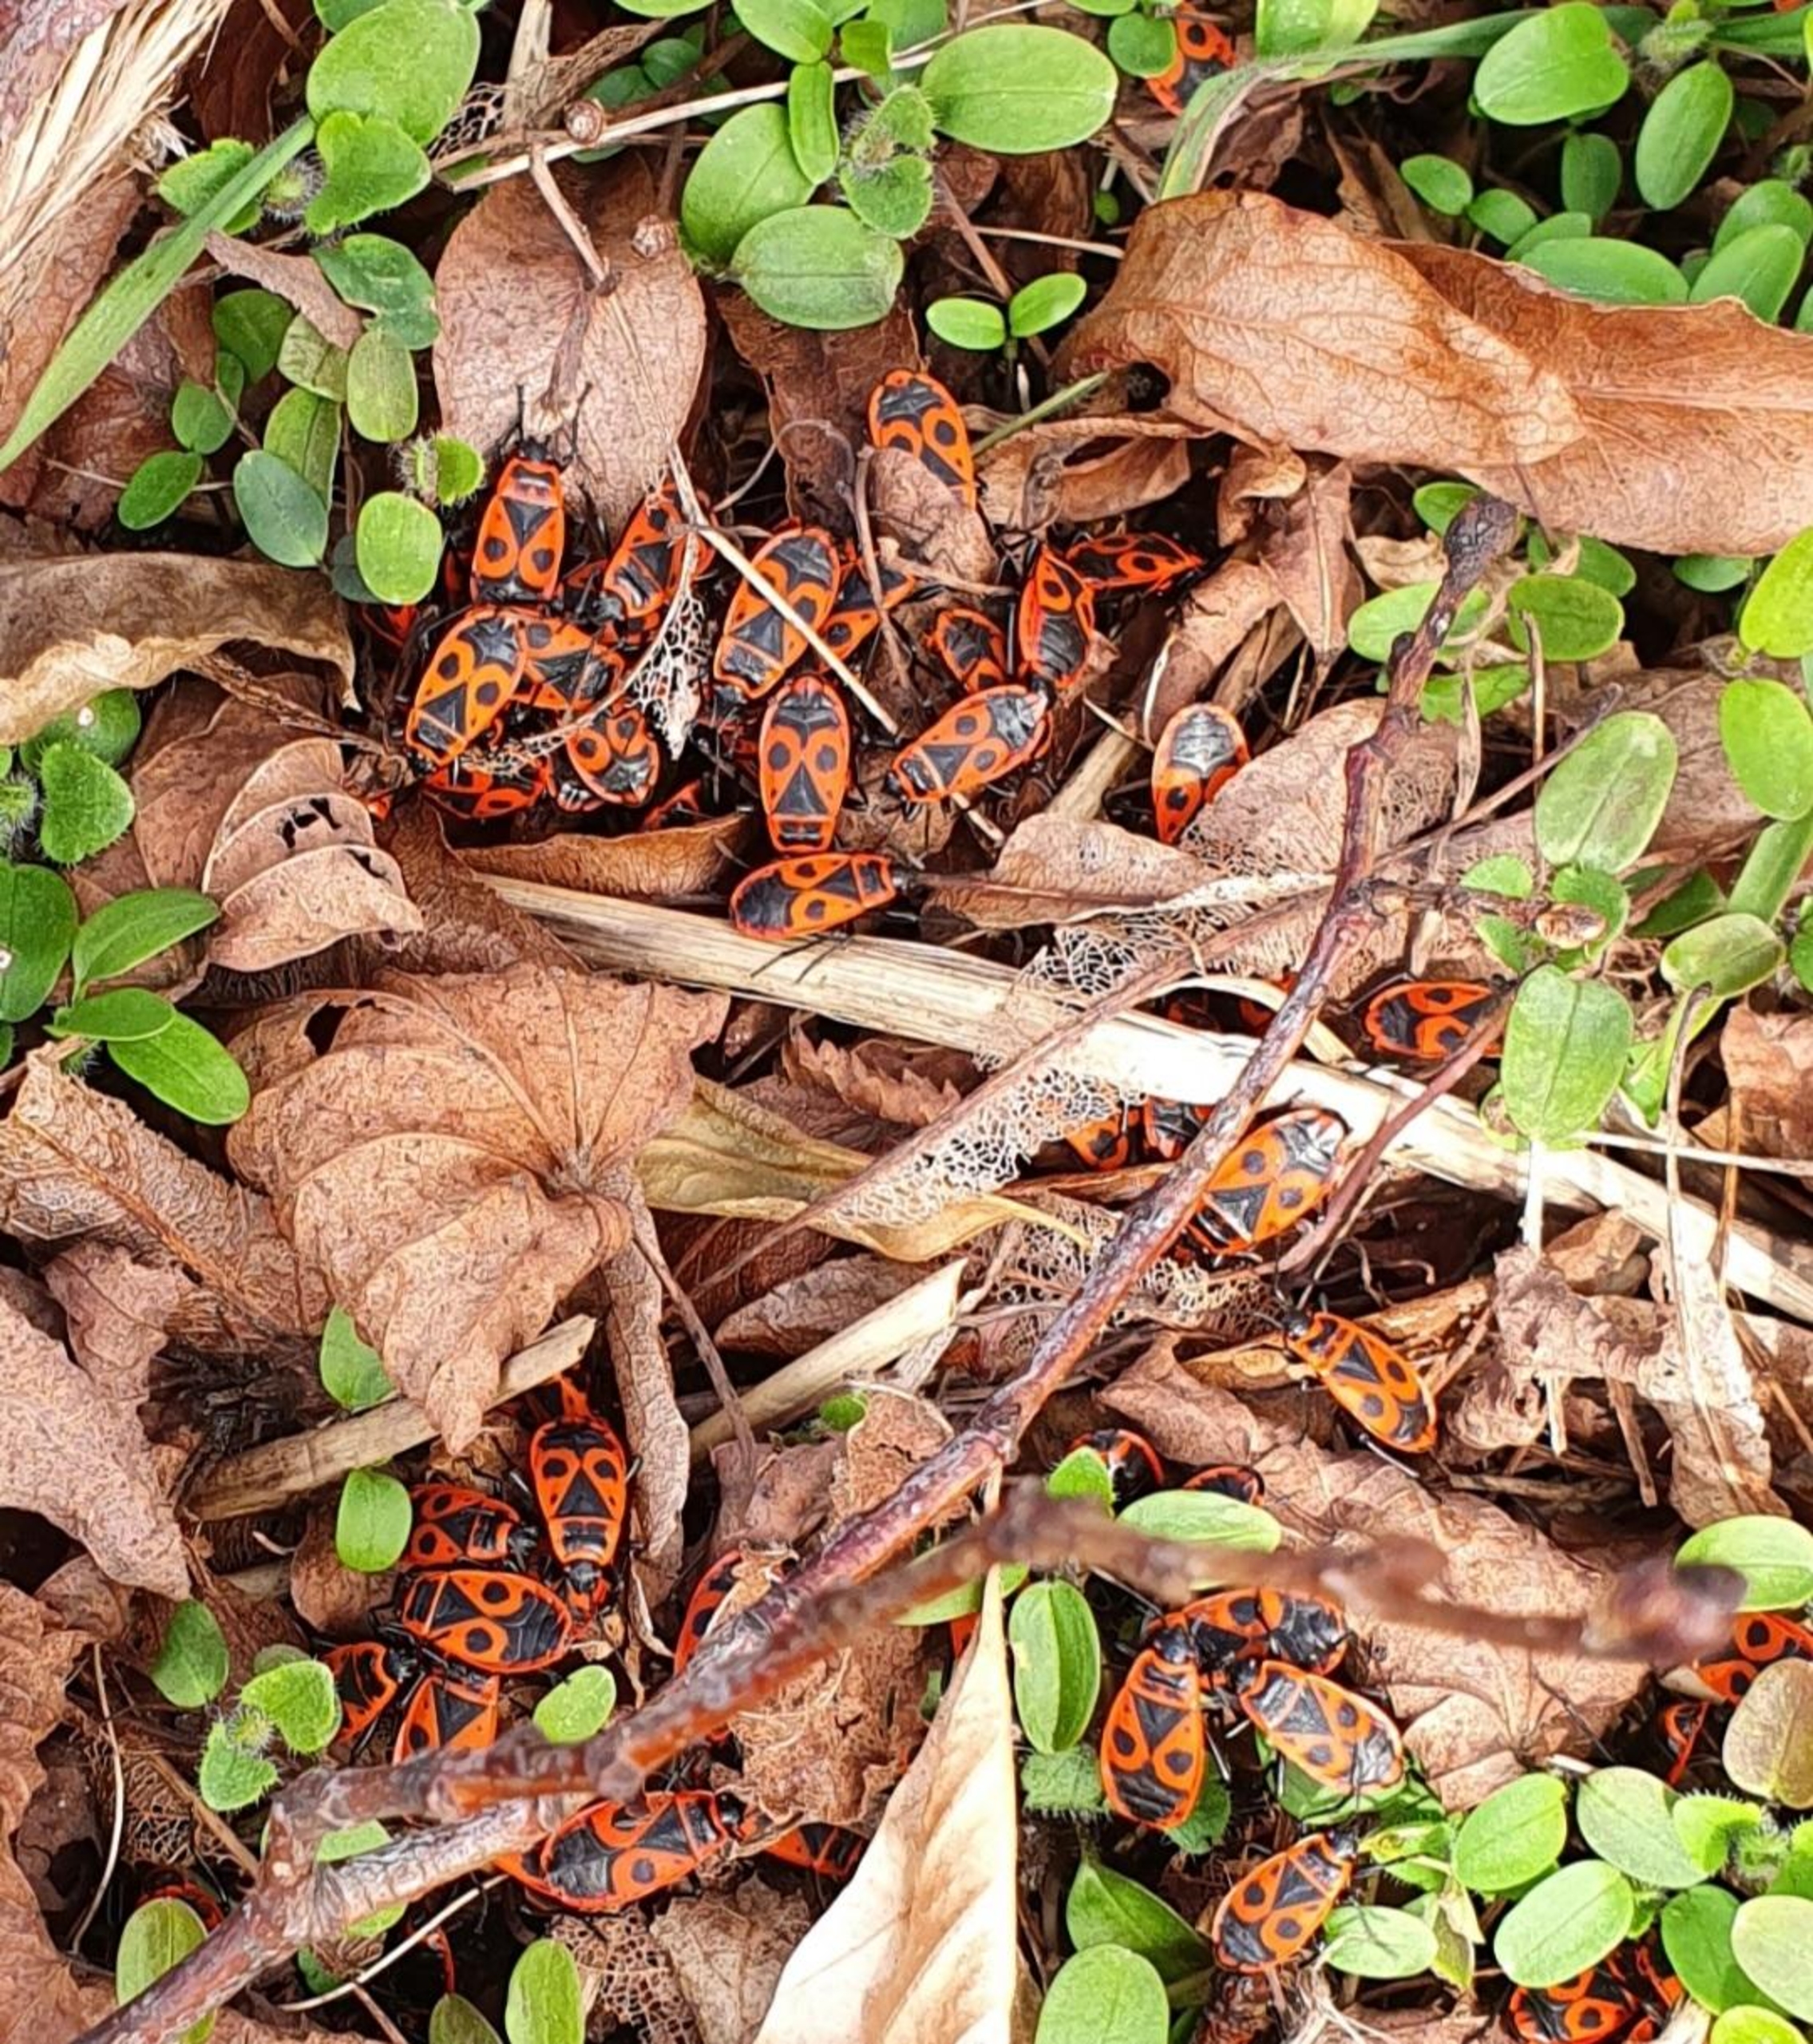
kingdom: Animalia
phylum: Arthropoda
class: Insecta
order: Hemiptera
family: Pyrrhocoridae
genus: Pyrrhocoris
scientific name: Pyrrhocoris apterus
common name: Ildtæge
